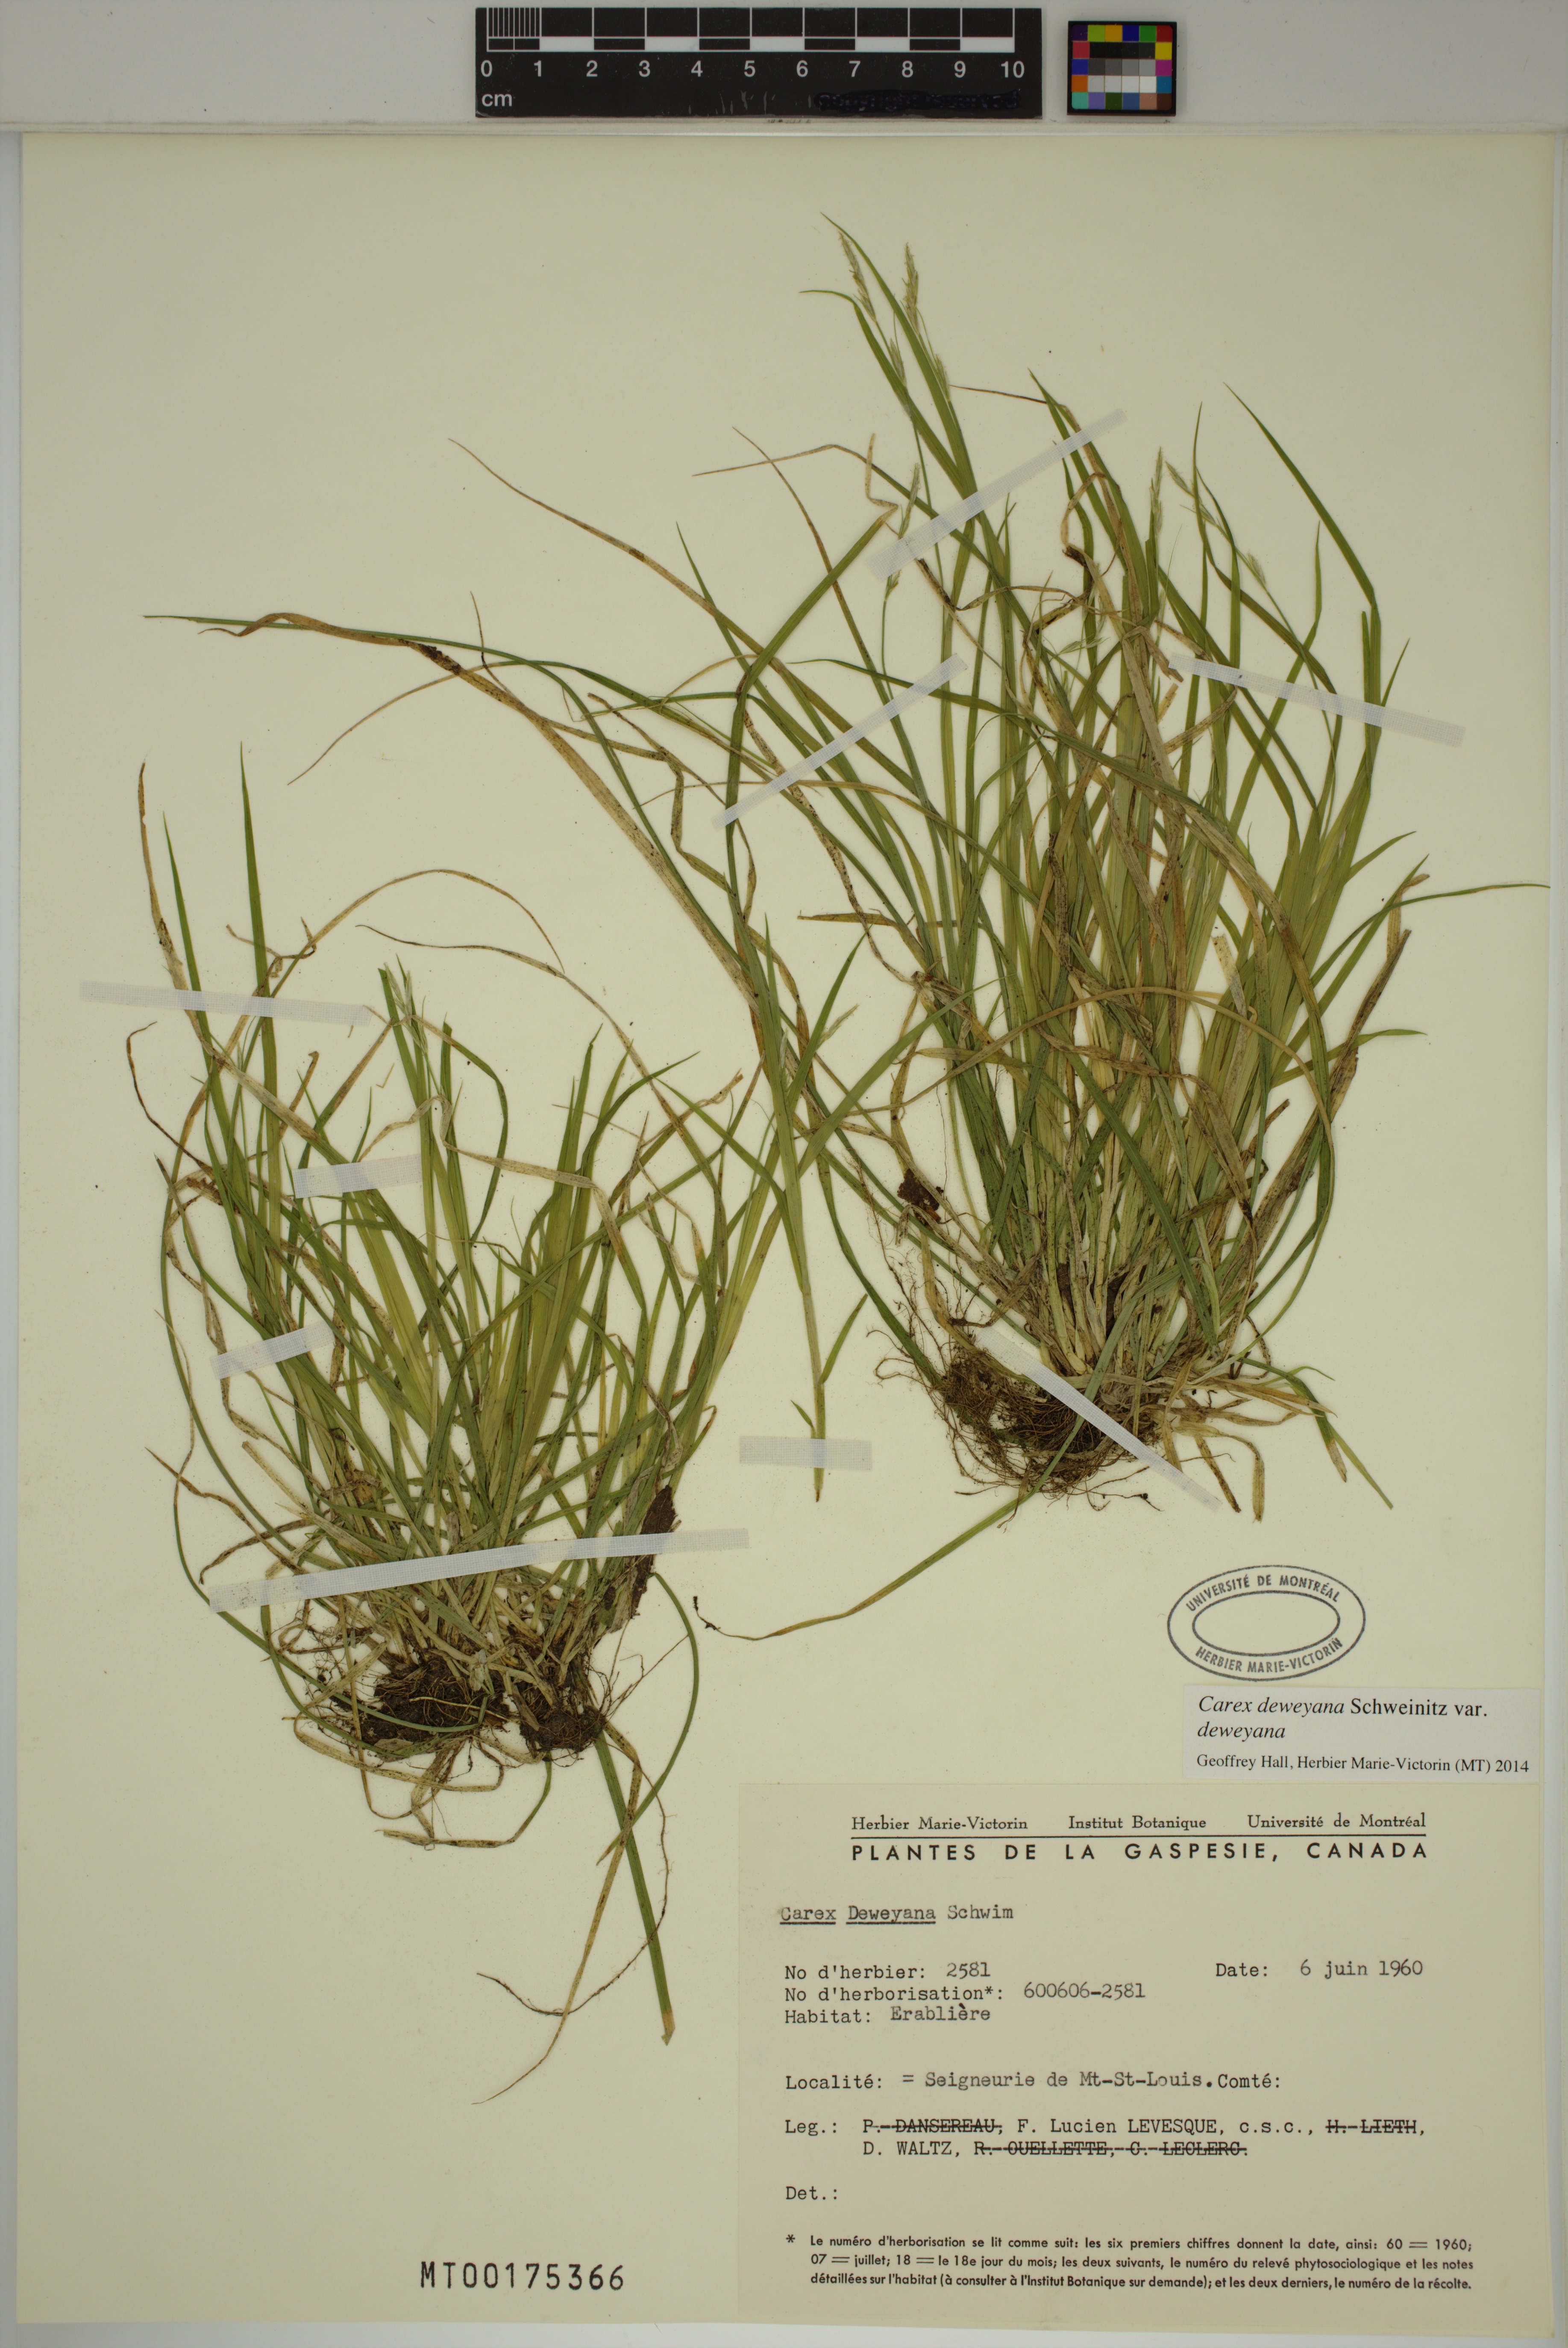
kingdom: Plantae
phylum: Tracheophyta
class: Liliopsida
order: Poales
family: Cyperaceae
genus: Carex
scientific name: Carex deweyana
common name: Dewey's sedge
